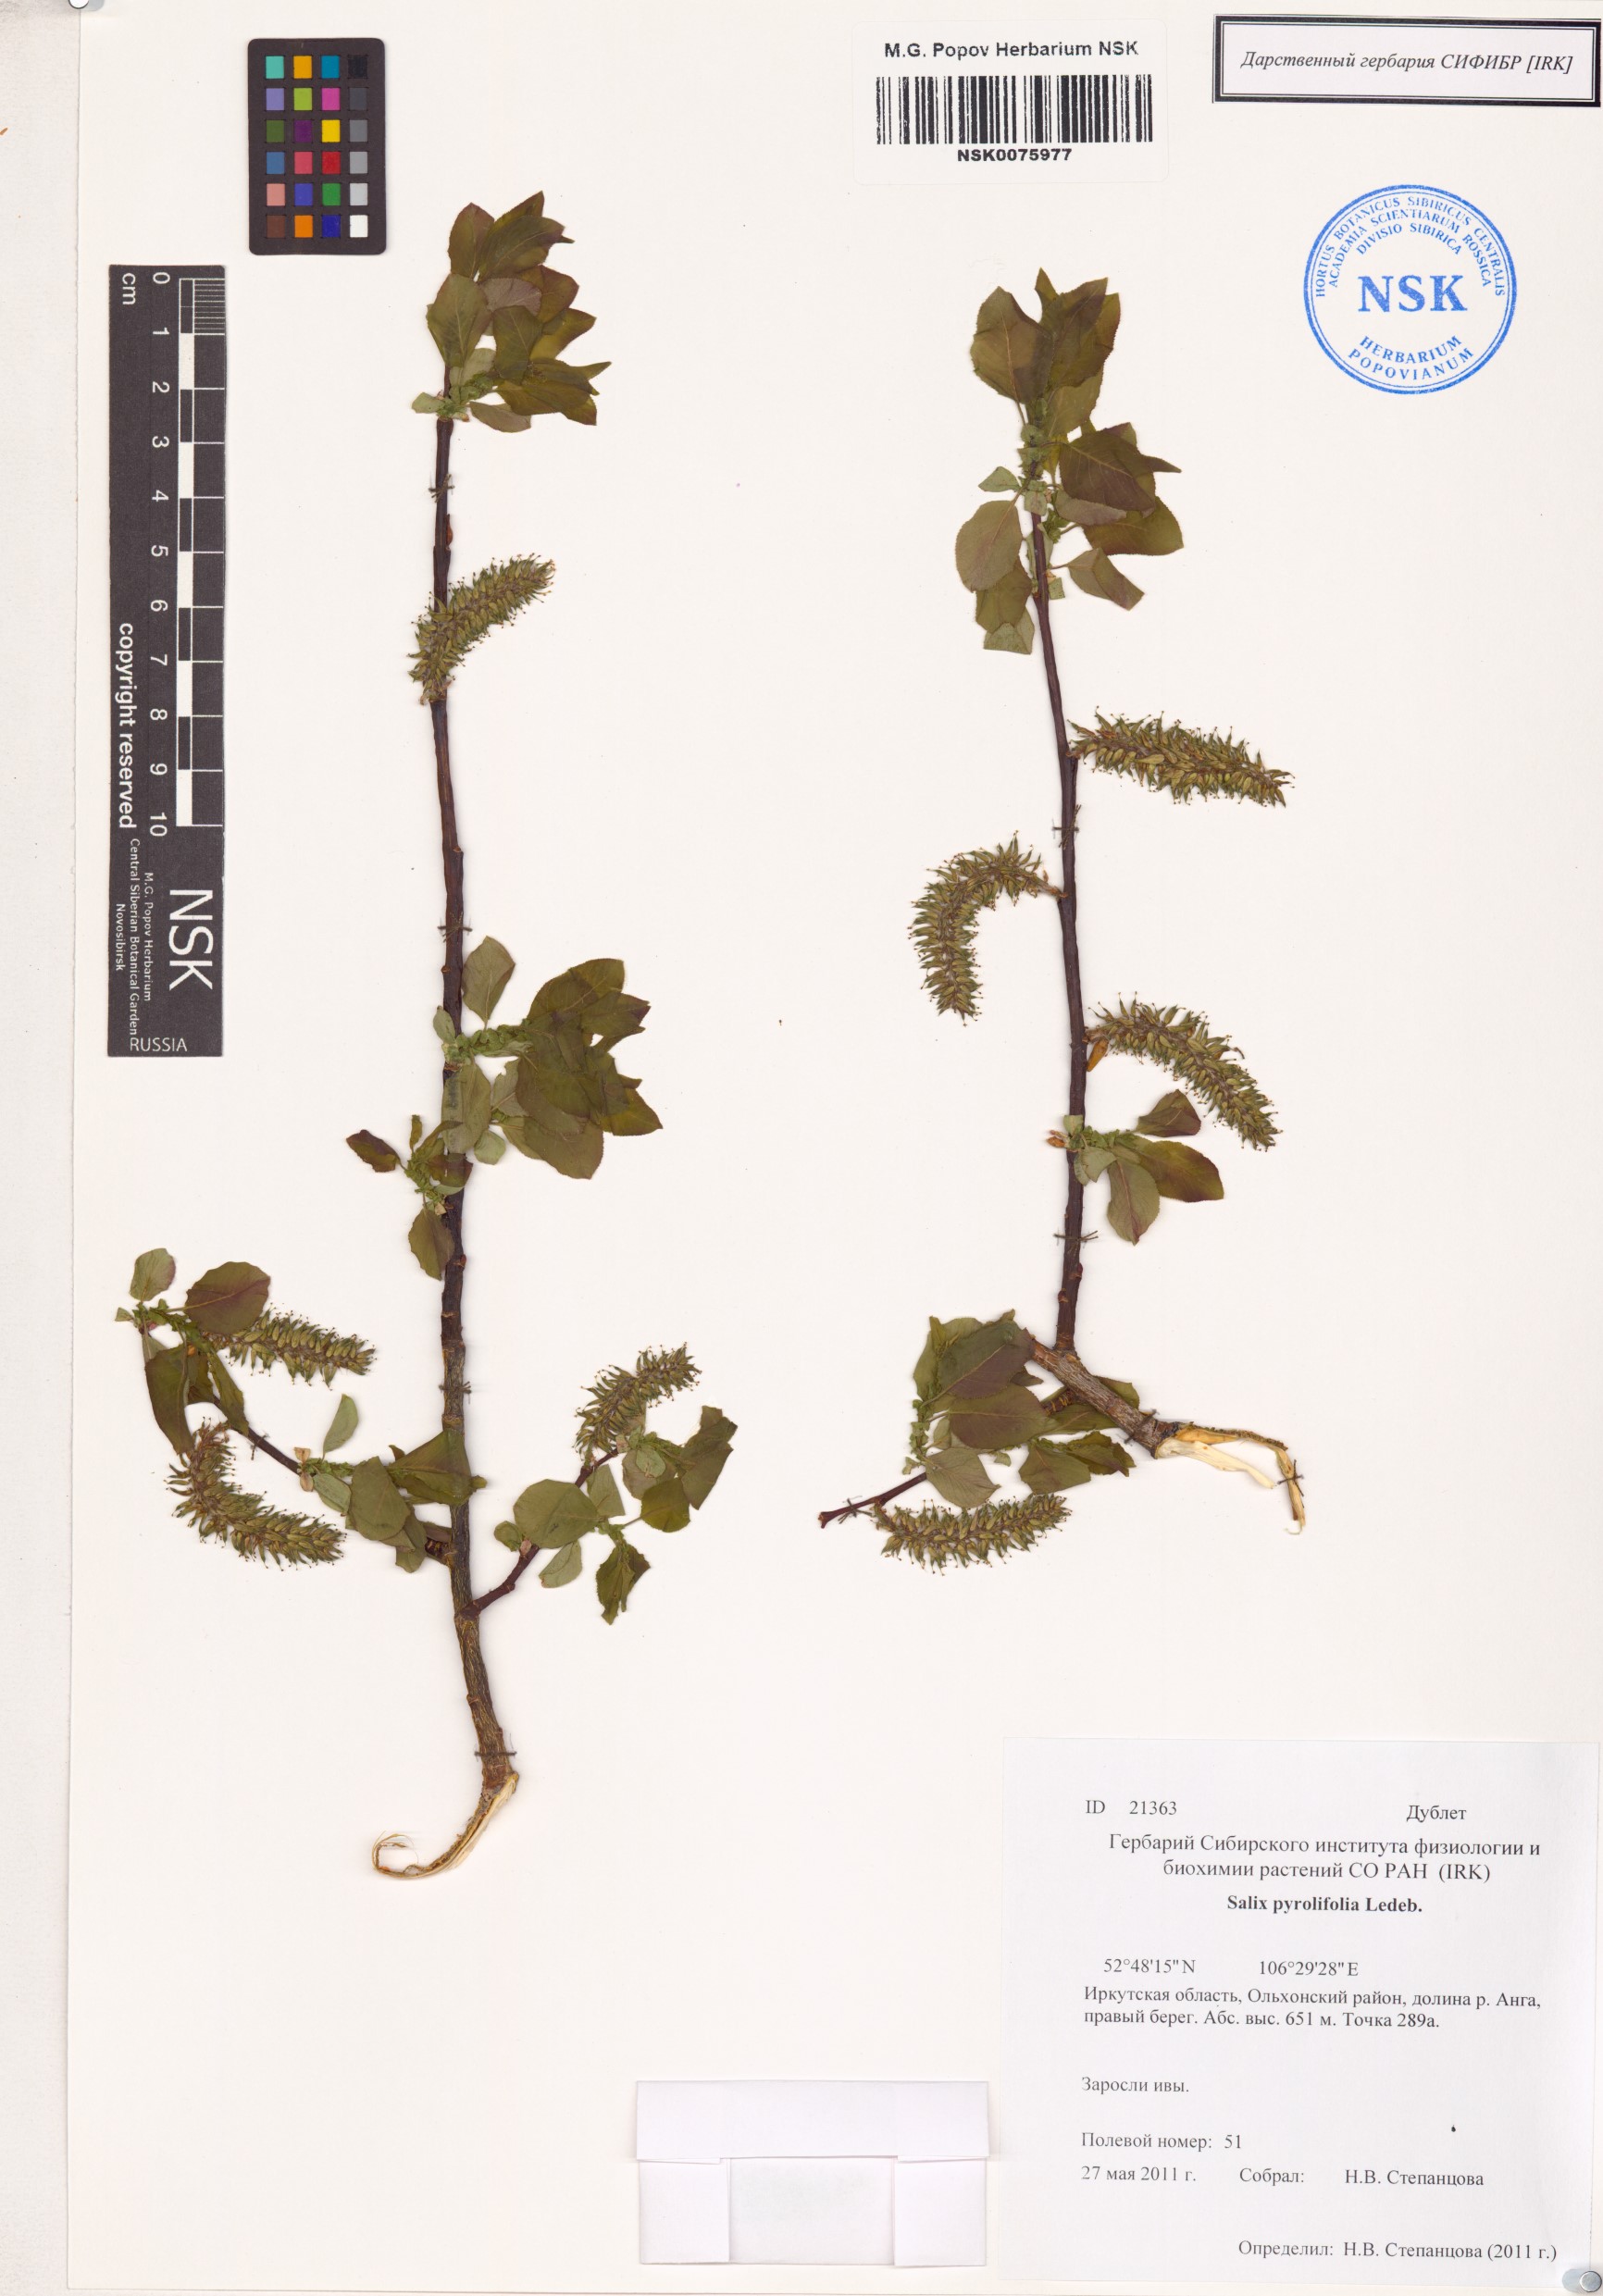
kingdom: Plantae
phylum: Tracheophyta
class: Magnoliopsida
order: Malpighiales
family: Salicaceae
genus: Salix
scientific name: Salix pyrolifolia
